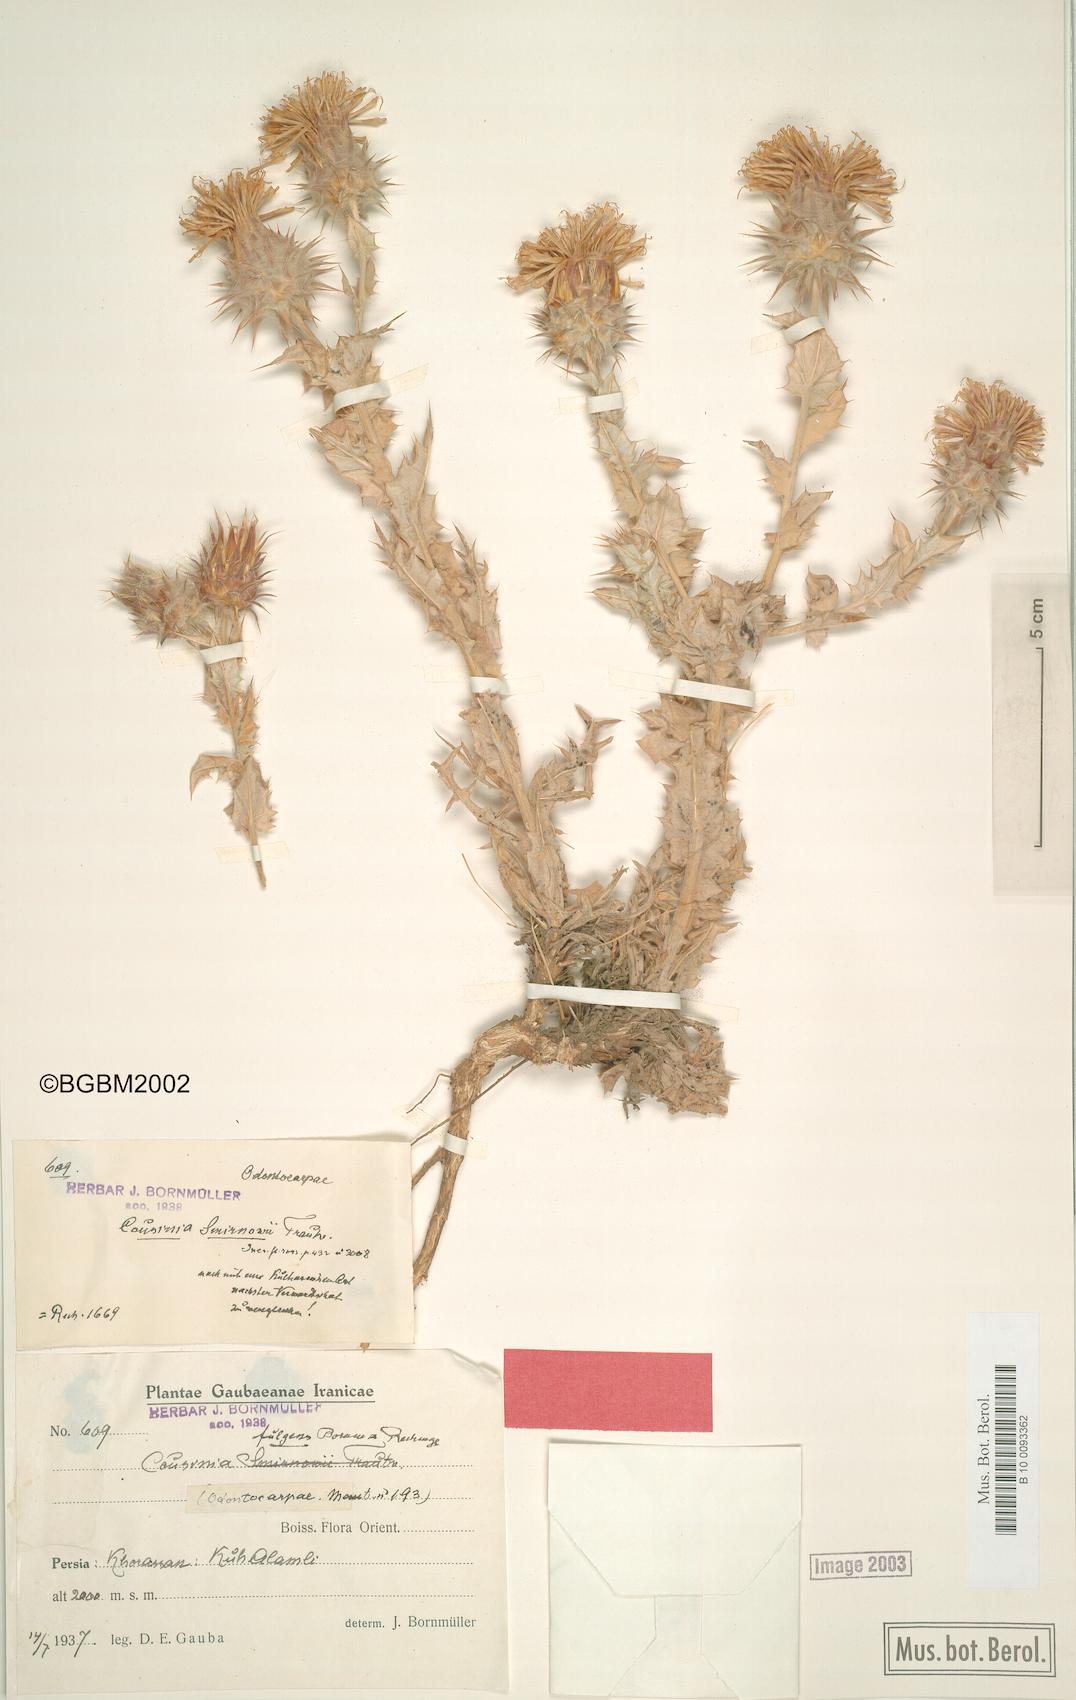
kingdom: Plantae
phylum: Tracheophyta
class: Magnoliopsida
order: Asterales
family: Asteraceae
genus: Cousinia
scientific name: Cousinia smirnowii
